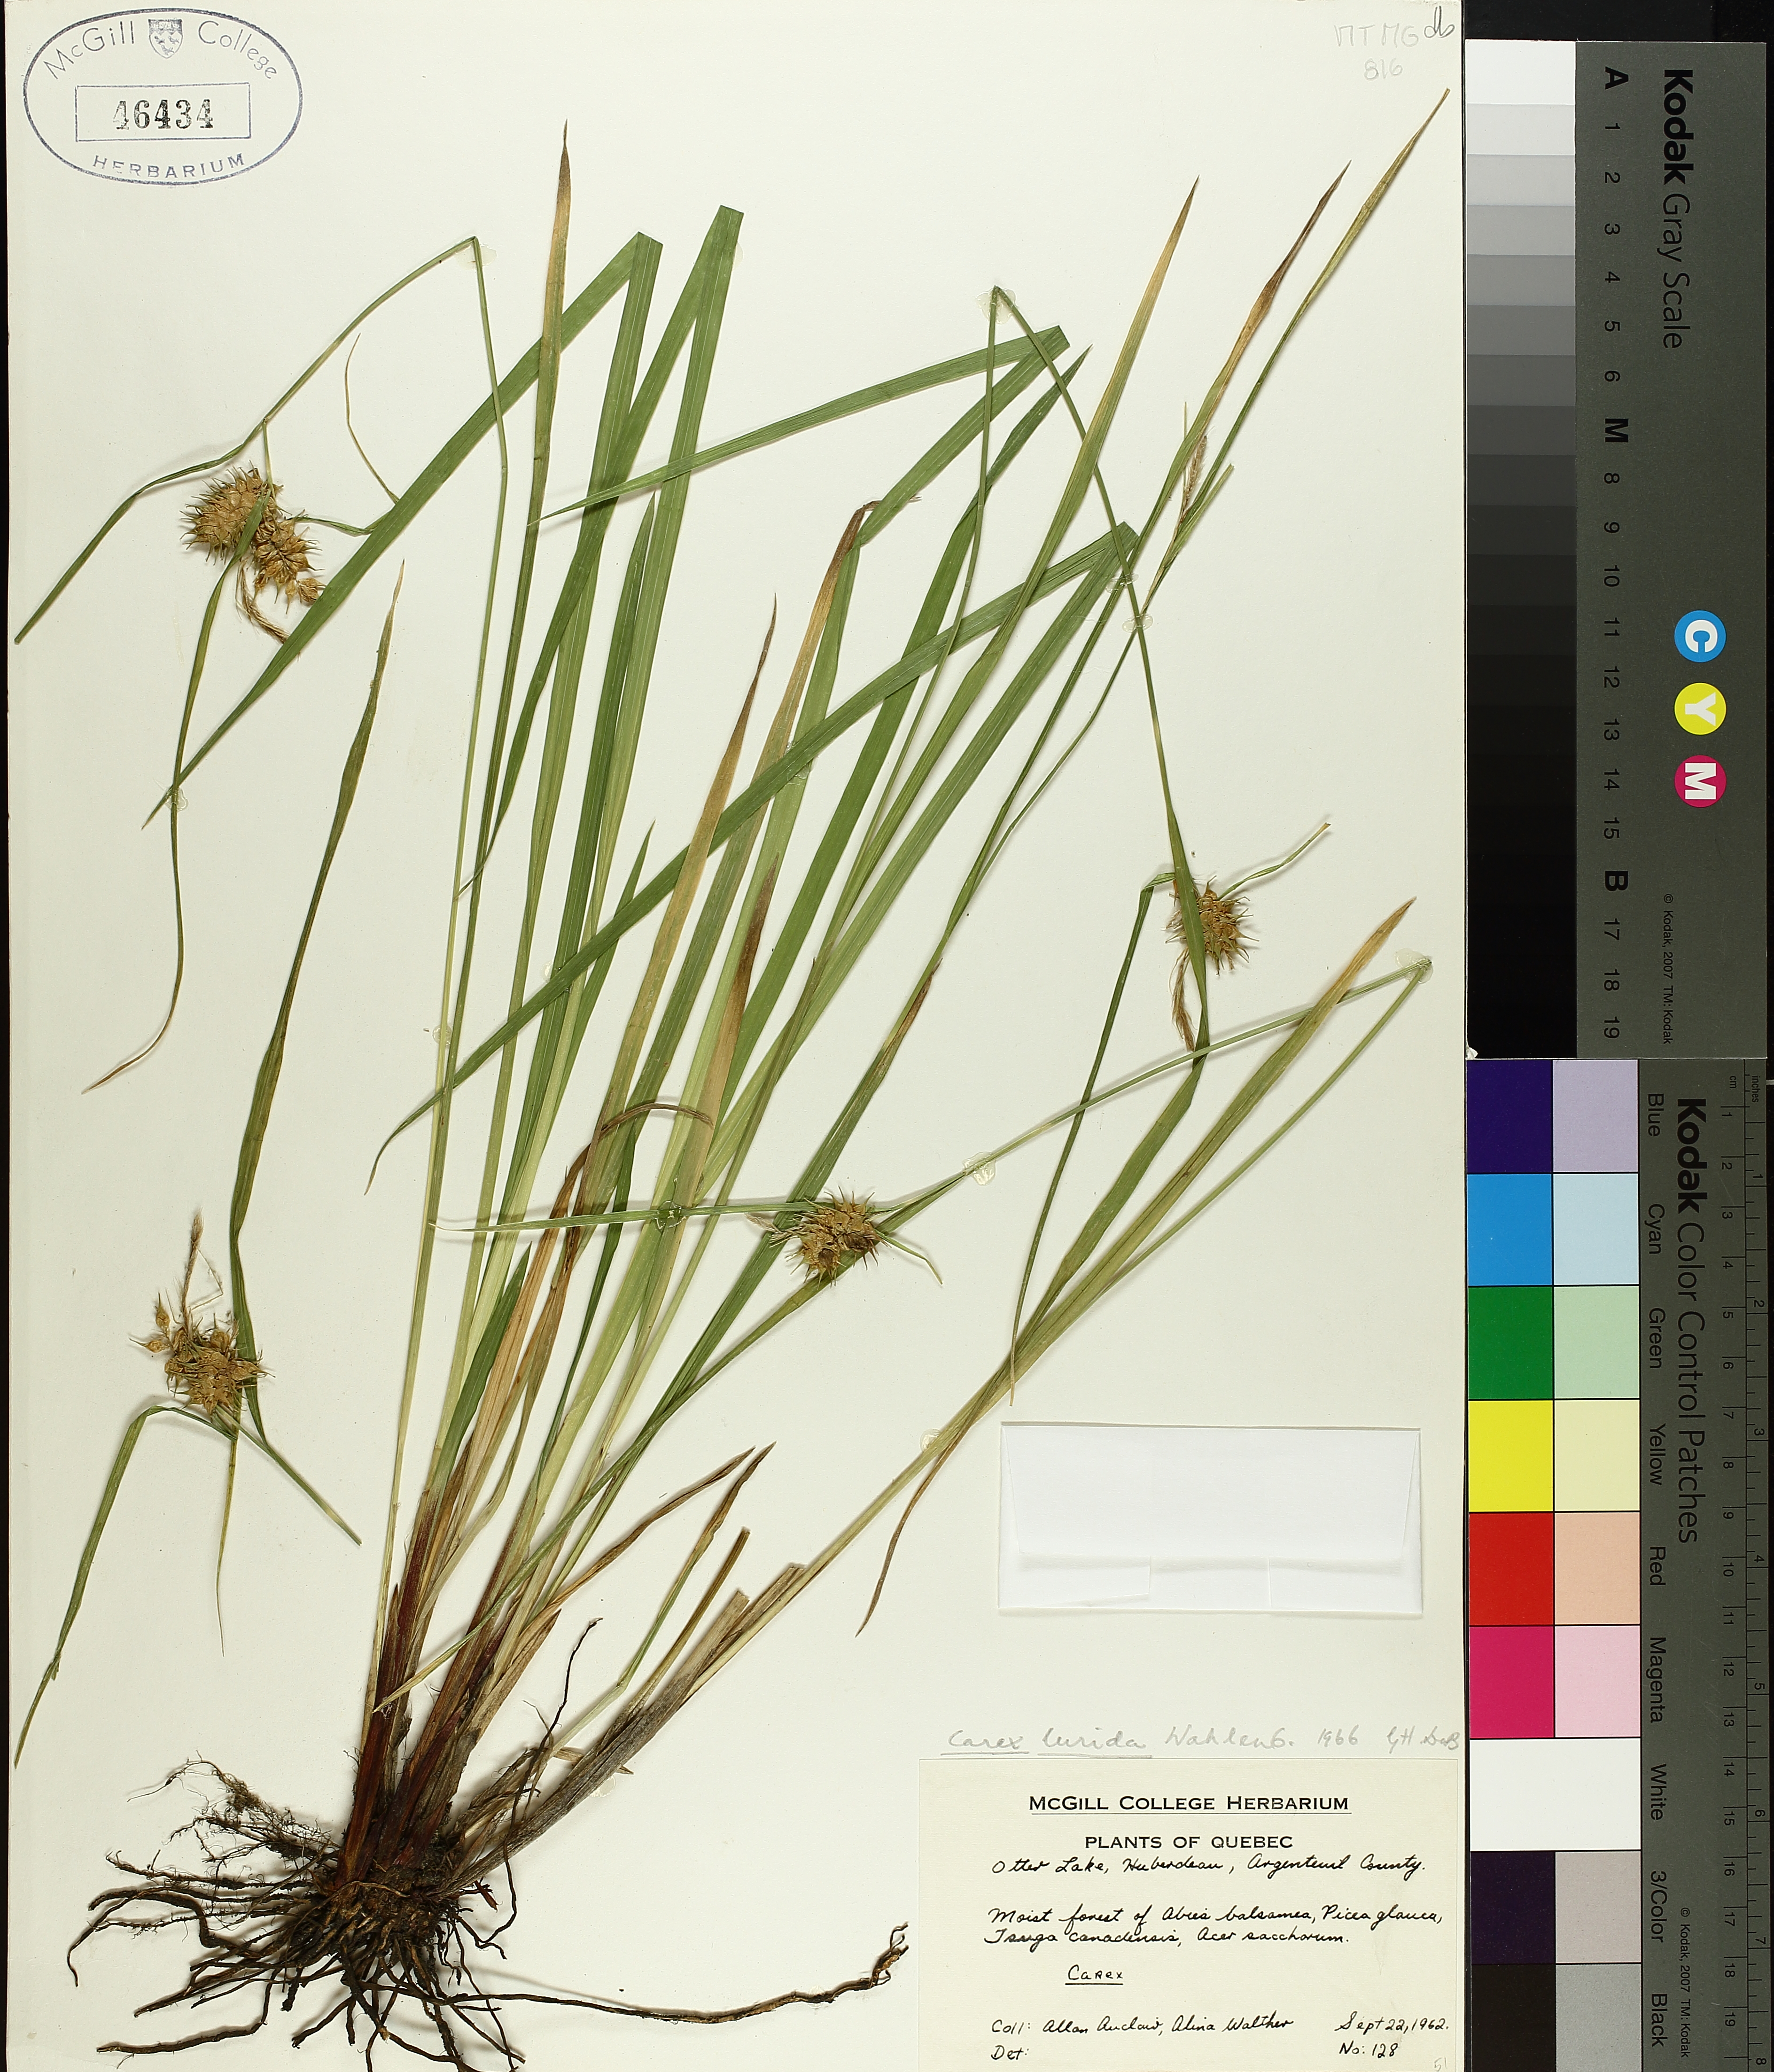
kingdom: Plantae
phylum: Tracheophyta
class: Liliopsida
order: Poales
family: Cyperaceae
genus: Carex
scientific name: Carex lurida
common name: Sallow sedge
